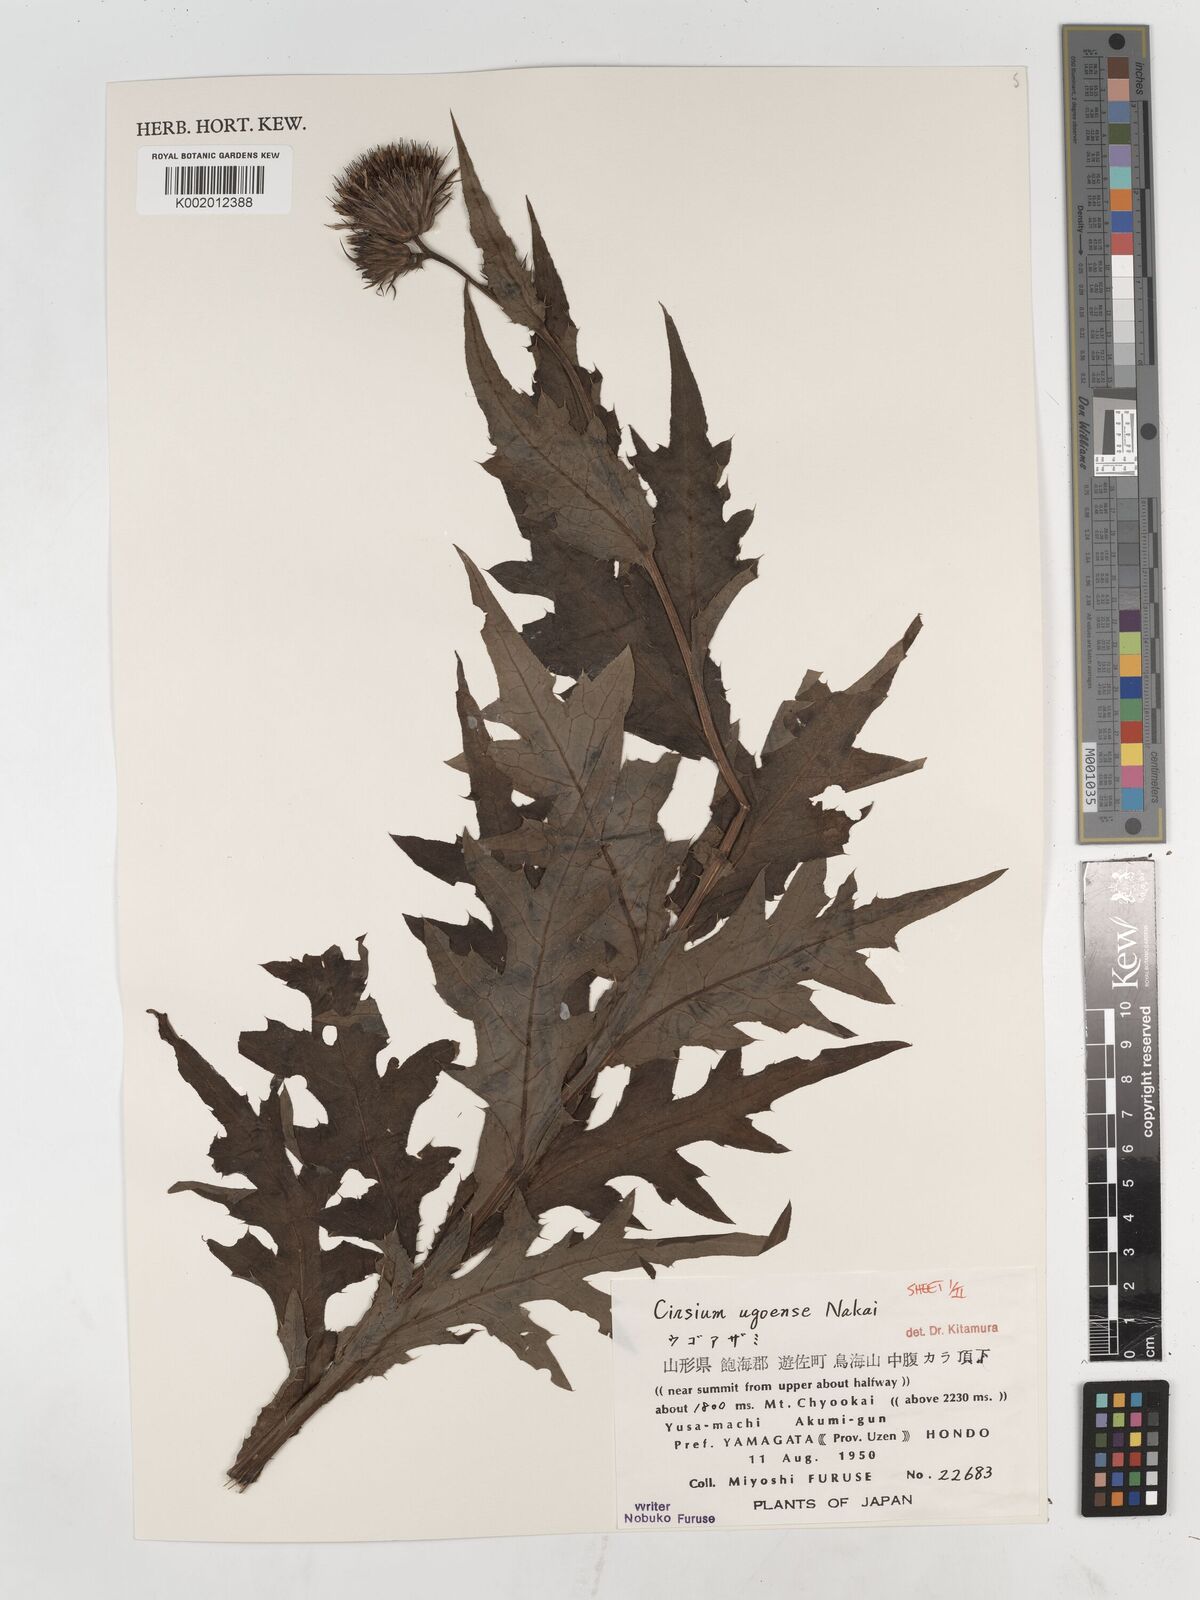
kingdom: Plantae
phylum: Tracheophyta
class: Magnoliopsida
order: Asterales
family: Asteraceae
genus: Cirsium
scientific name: Cirsium ugoense
